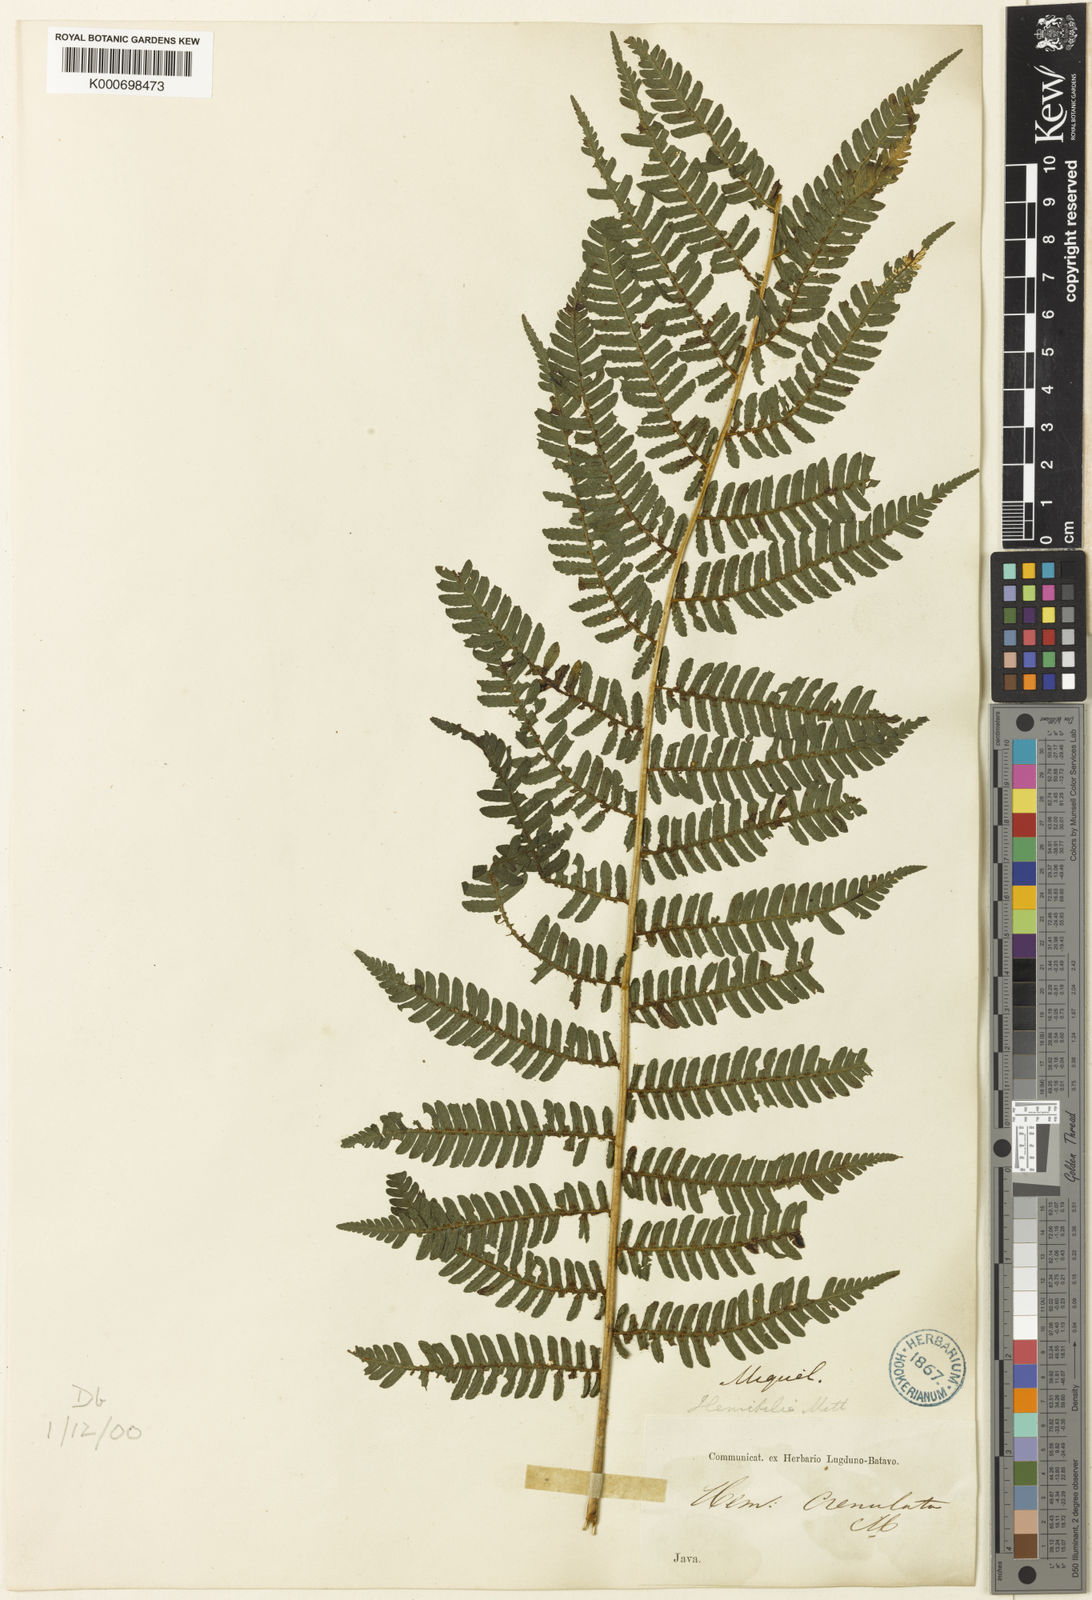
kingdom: Plantae
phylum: Tracheophyta
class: Polypodiopsida
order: Cyatheales
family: Cyatheaceae
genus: Alsophila
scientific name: Alsophila crenulata
